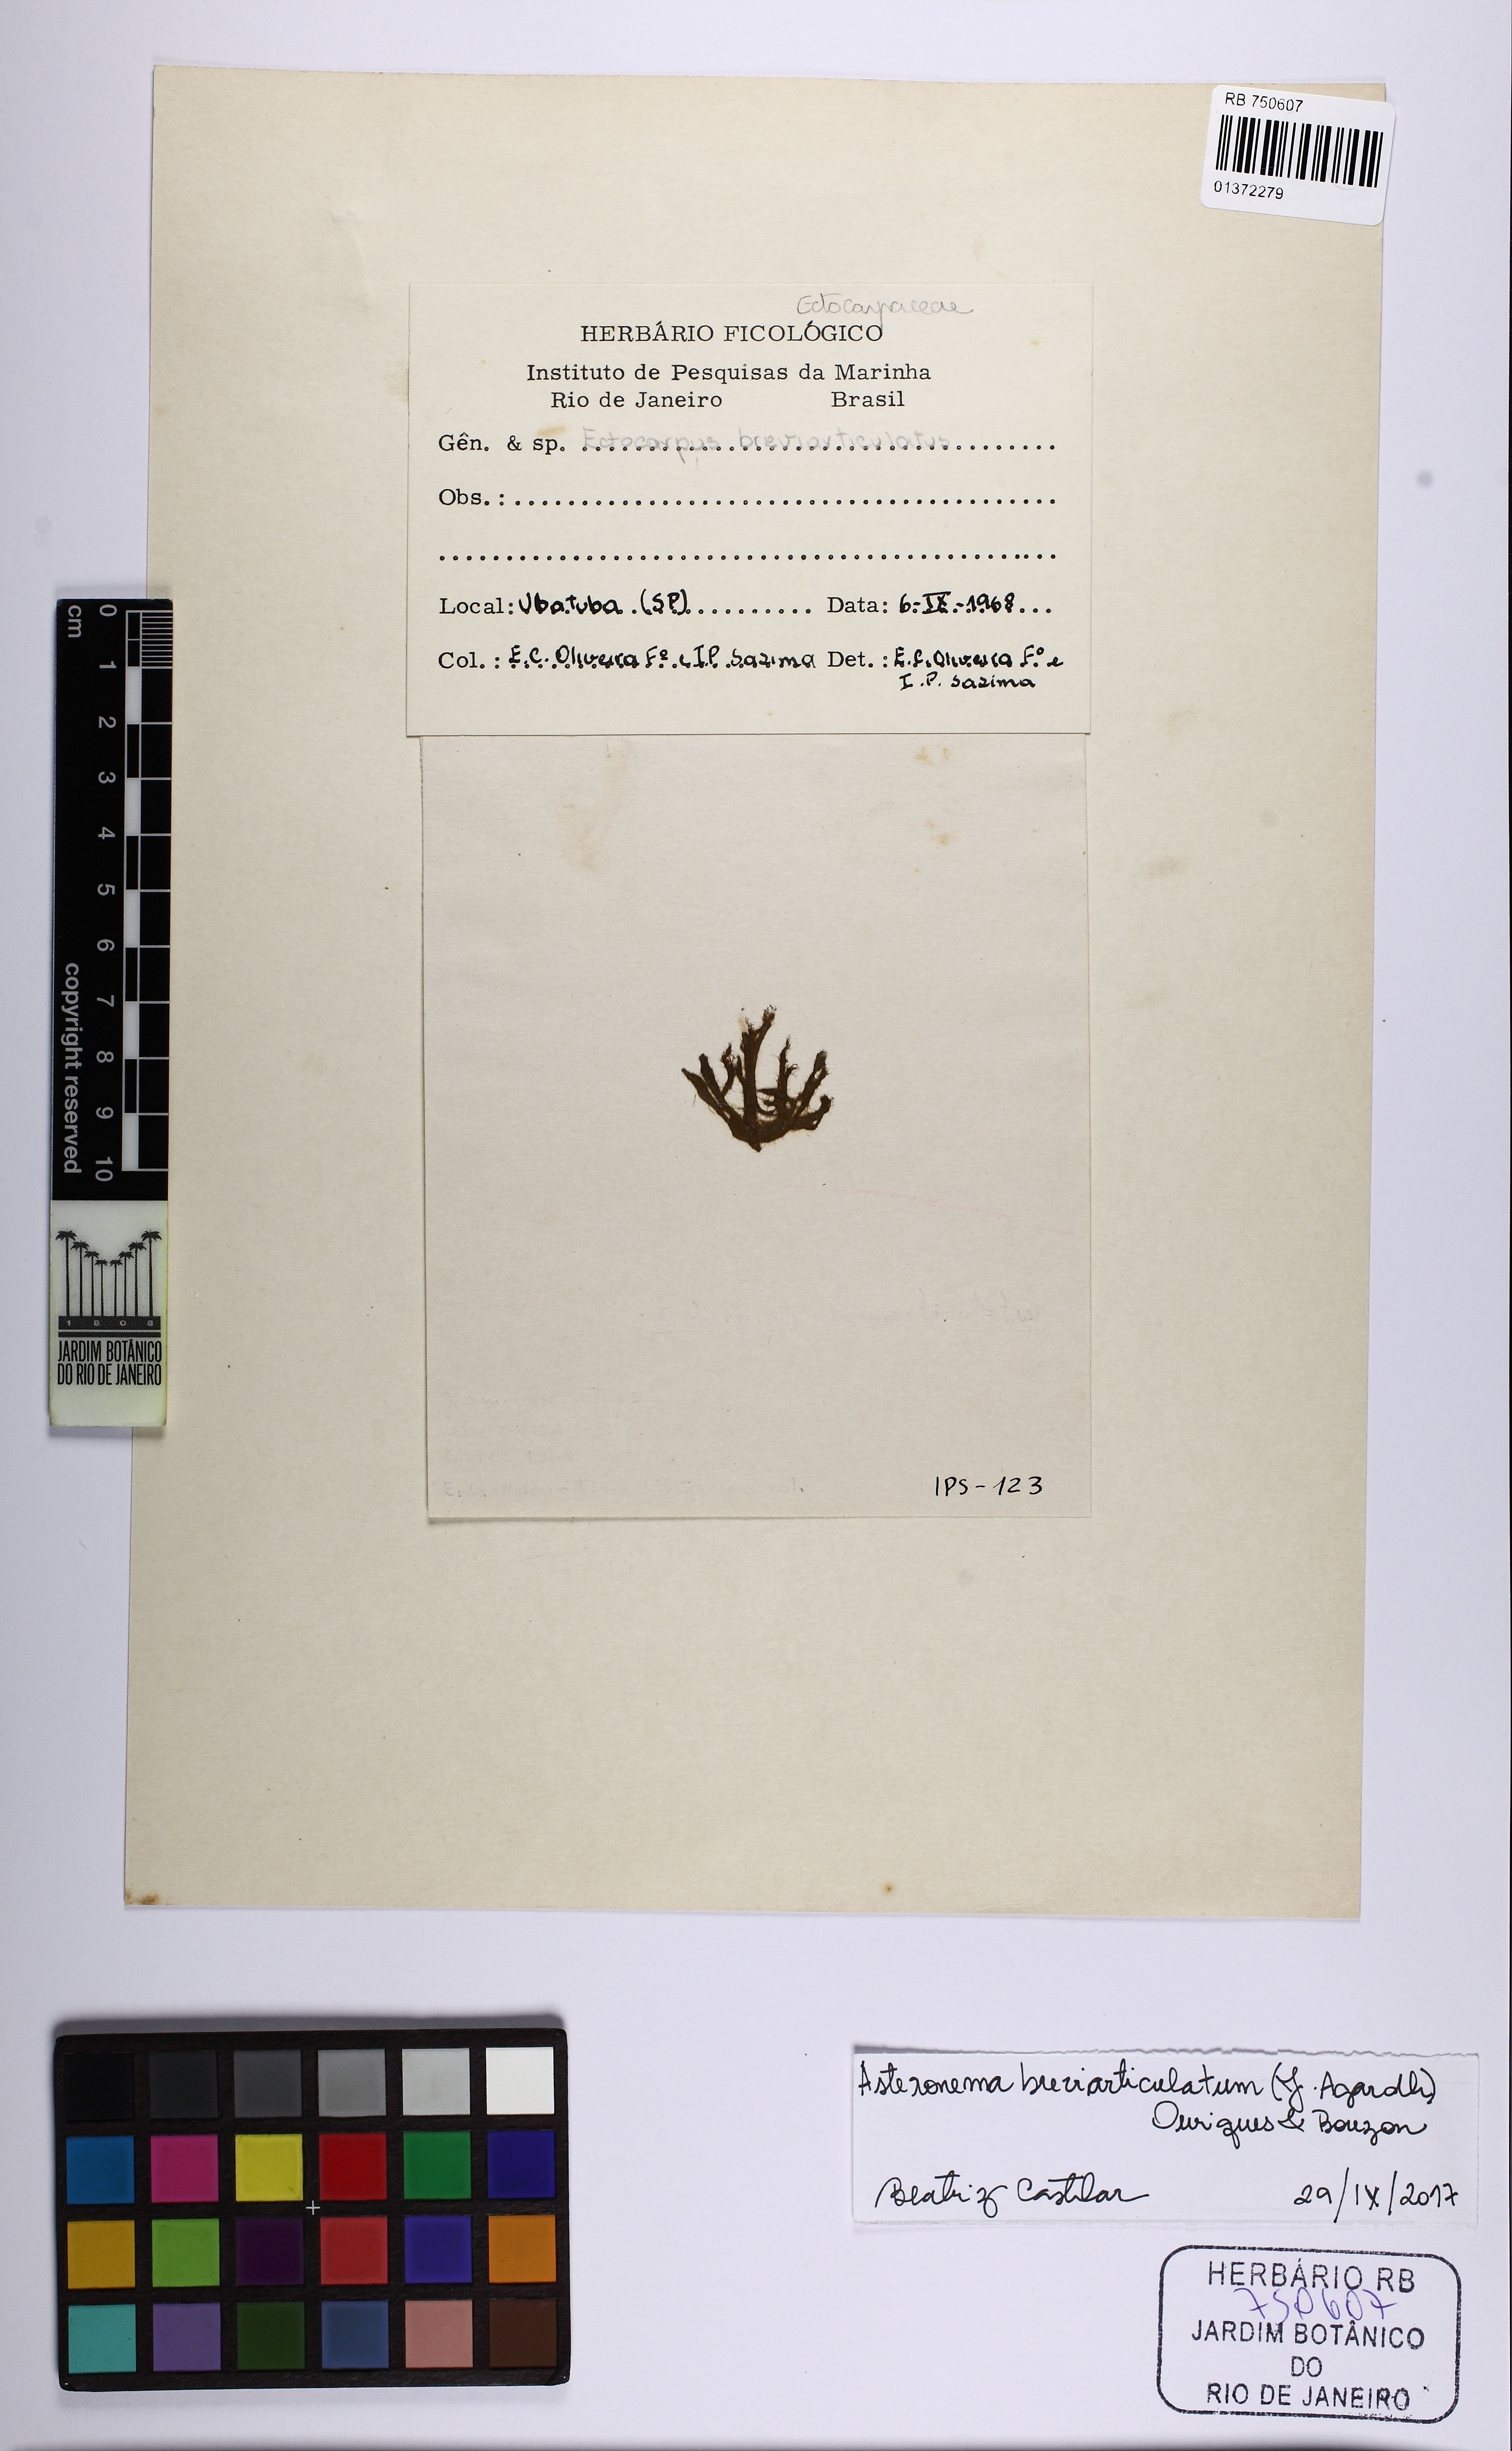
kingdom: Chromista
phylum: Ochrophyta
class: Phaeophyceae
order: Scytothamnales
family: Asteronemataceae
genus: Asteronema
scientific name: Asteronema breviarticulatum
